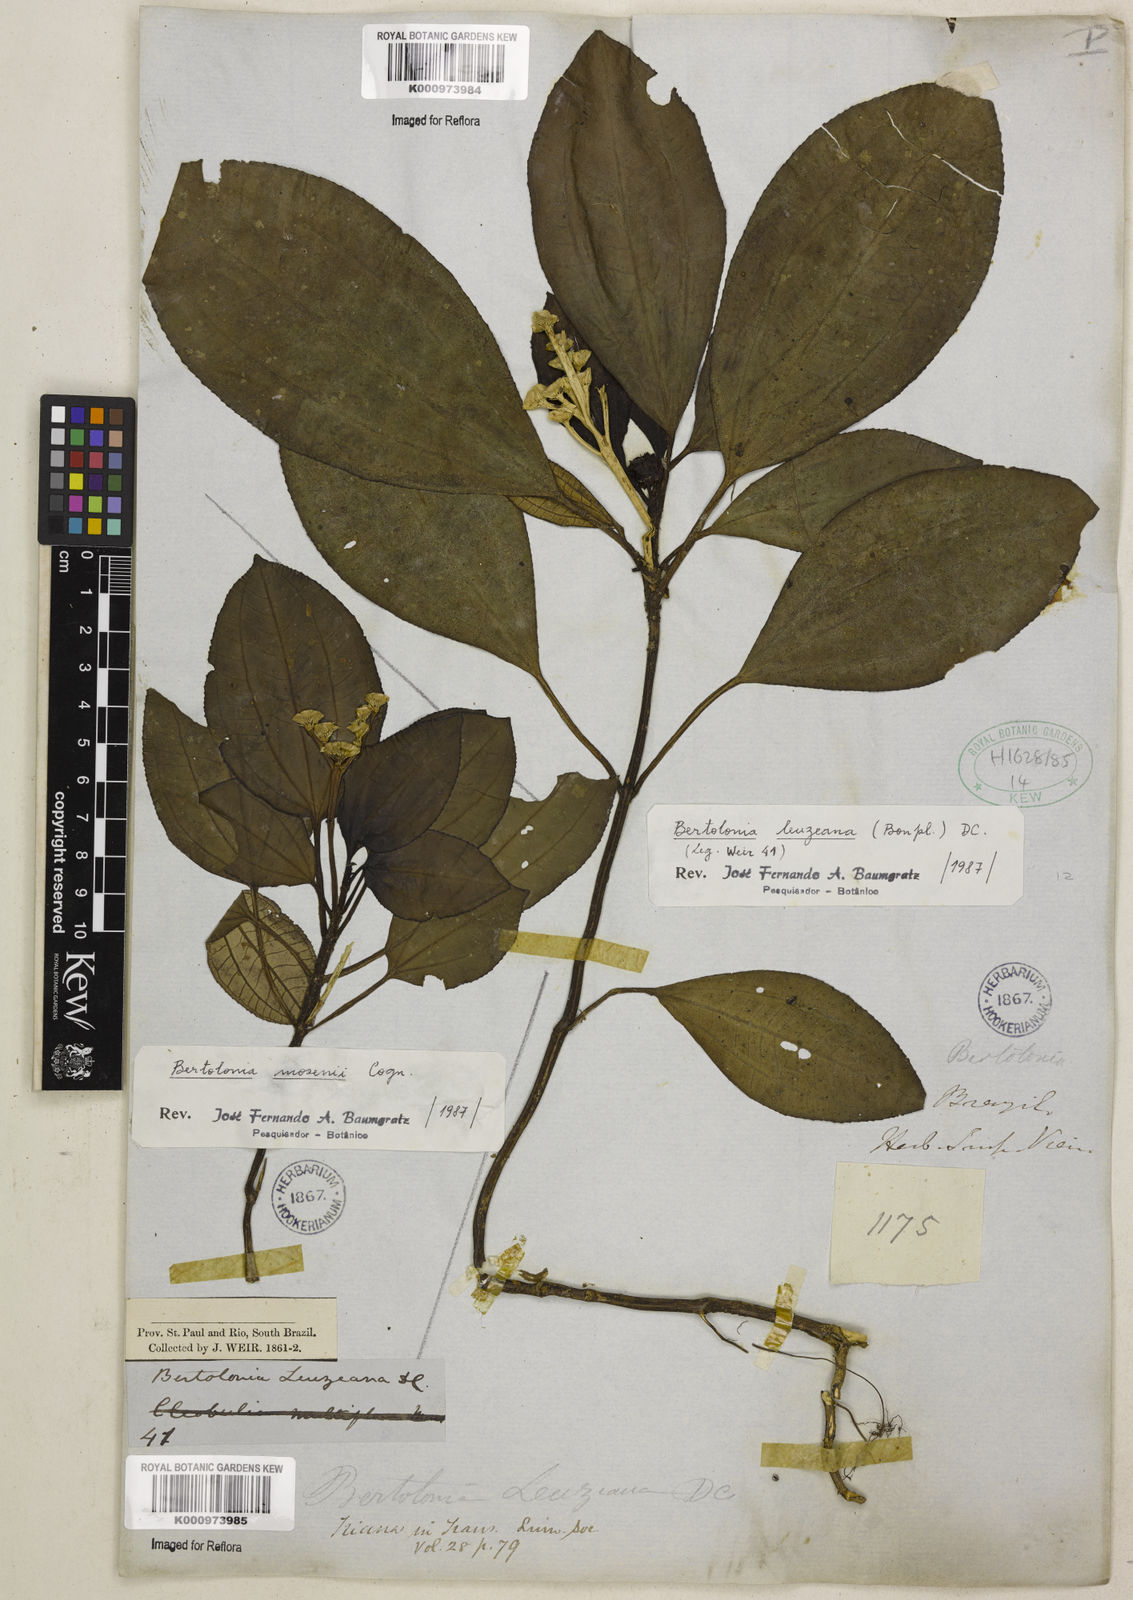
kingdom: Plantae
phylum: Tracheophyta
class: Magnoliopsida
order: Myrtales
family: Melastomataceae
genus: Bertolonia
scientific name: Bertolonia leuzeana
